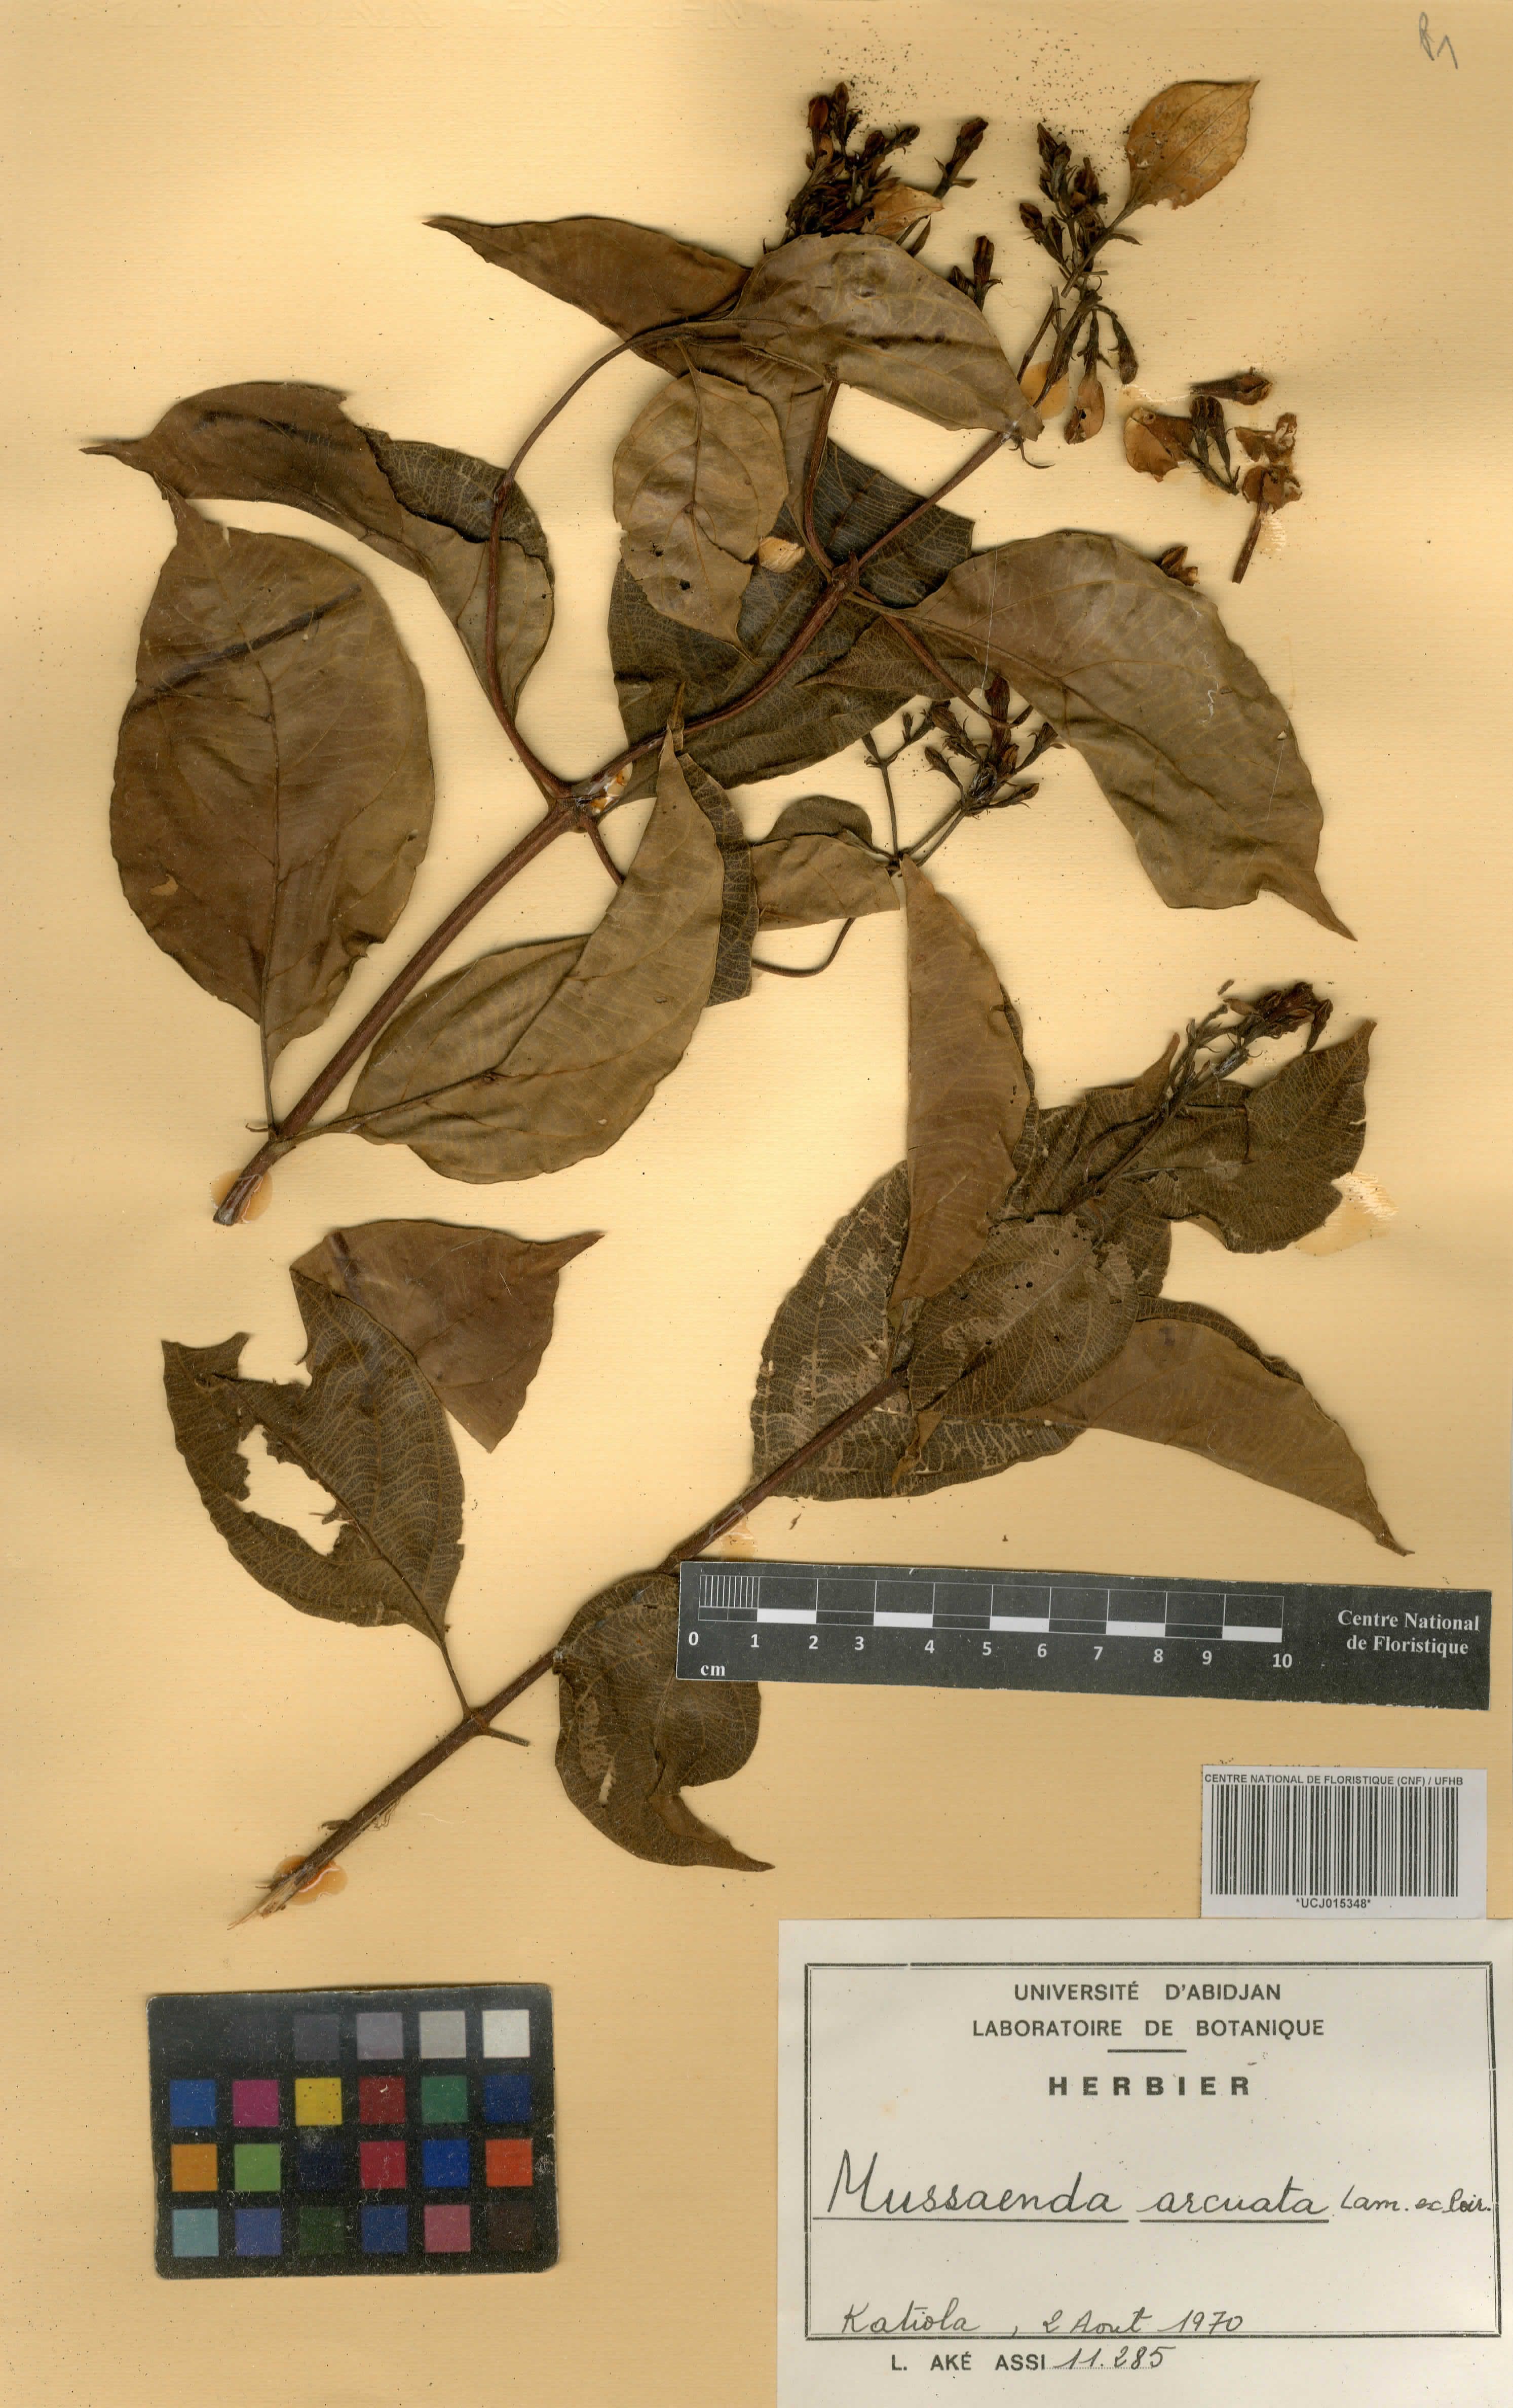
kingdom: Plantae
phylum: Tracheophyta
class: Magnoliopsida
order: Gentianales
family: Rubiaceae
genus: Mussaenda
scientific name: Mussaenda arcuata
